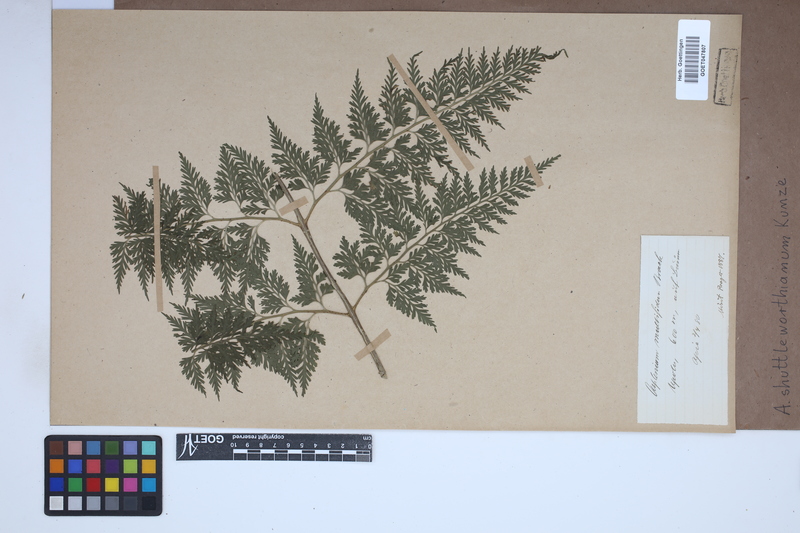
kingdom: Plantae
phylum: Tracheophyta
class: Polypodiopsida
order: Polypodiales
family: Aspleniaceae
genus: Asplenium
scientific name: Asplenium shuttleworthianum
